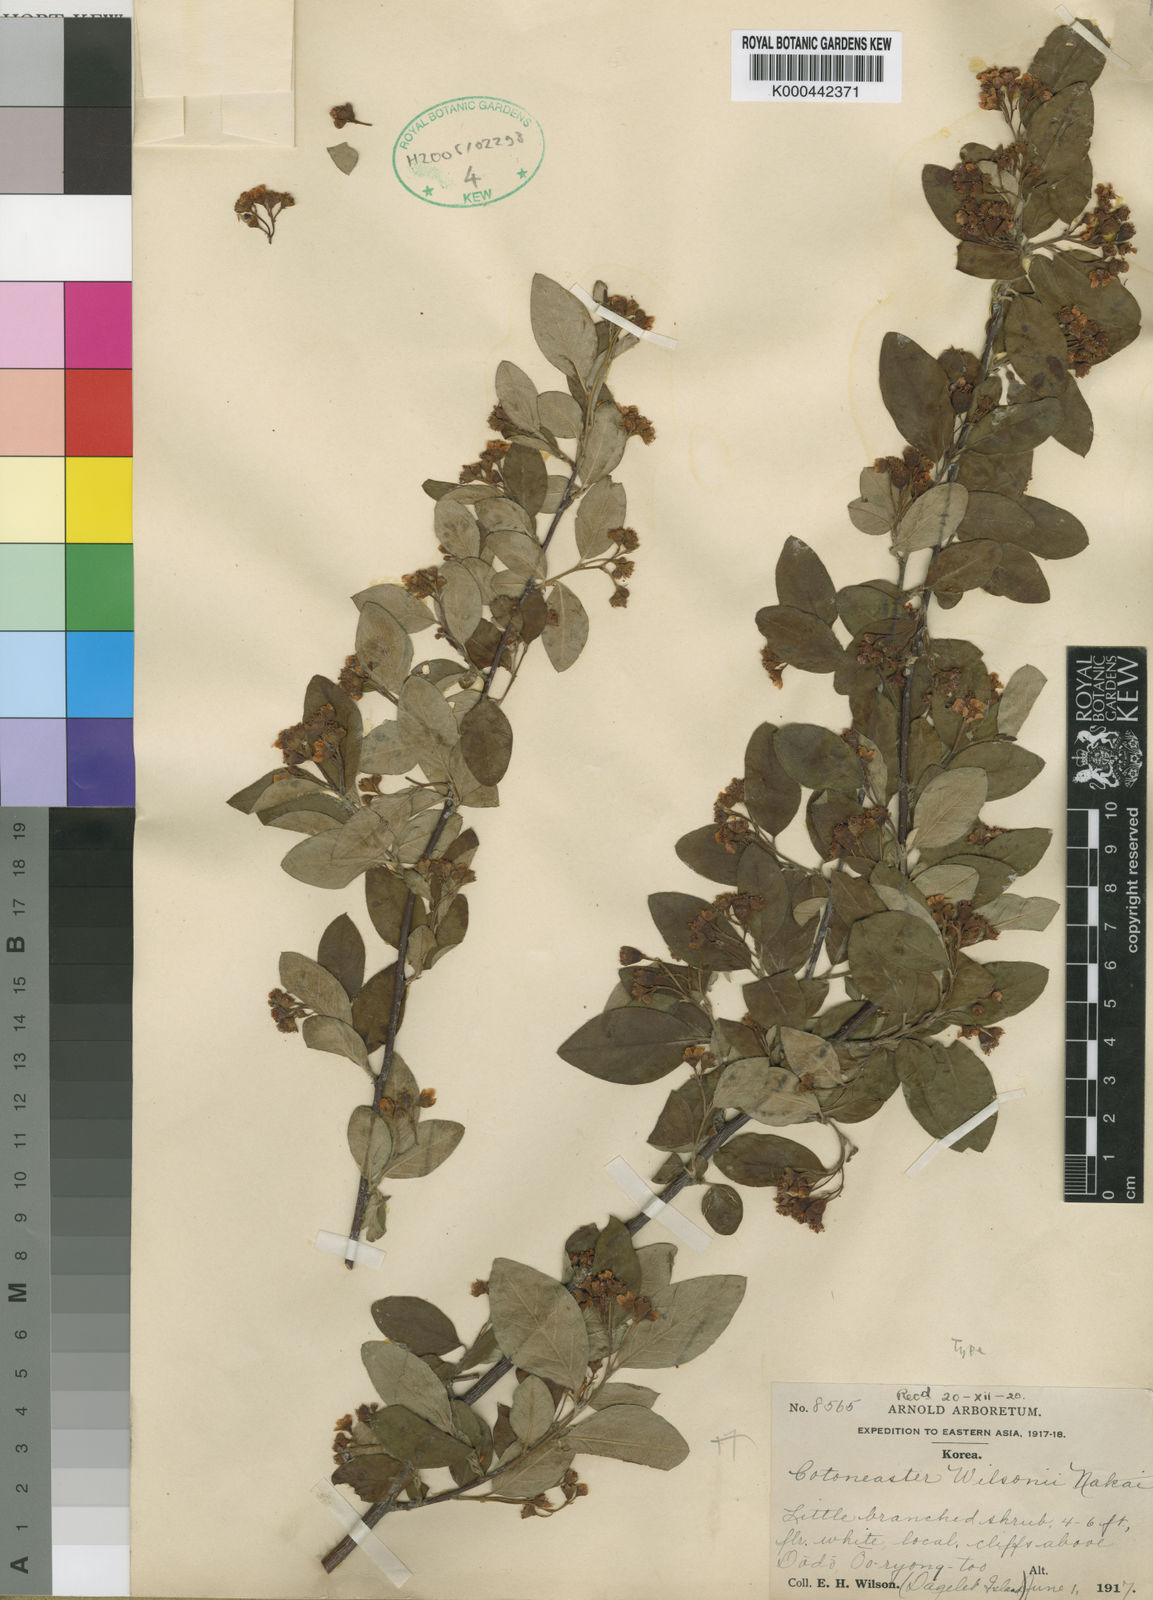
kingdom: Plantae
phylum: Tracheophyta
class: Magnoliopsida
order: Rosales
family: Rosaceae
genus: Cotoneaster
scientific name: Cotoneaster multiflorus
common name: Cotoneaster
